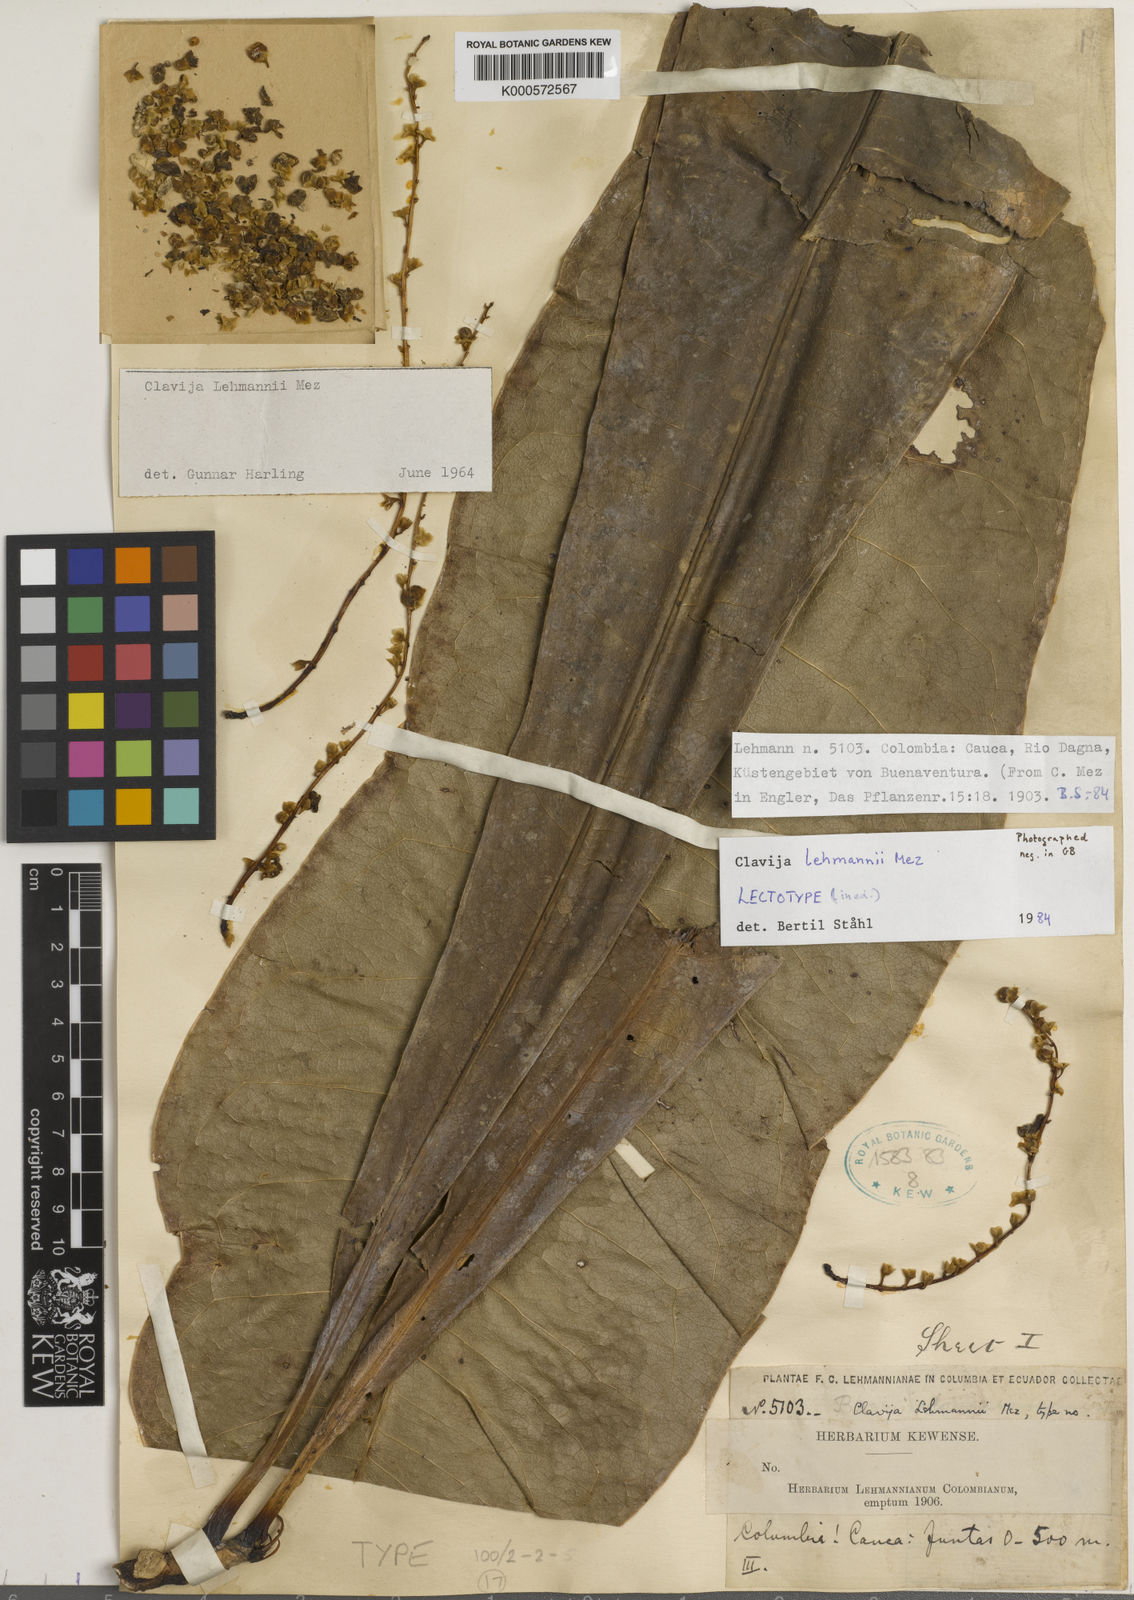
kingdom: Plantae
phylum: Tracheophyta
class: Magnoliopsida
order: Ericales
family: Primulaceae
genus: Clavija
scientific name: Clavija lehmannii
